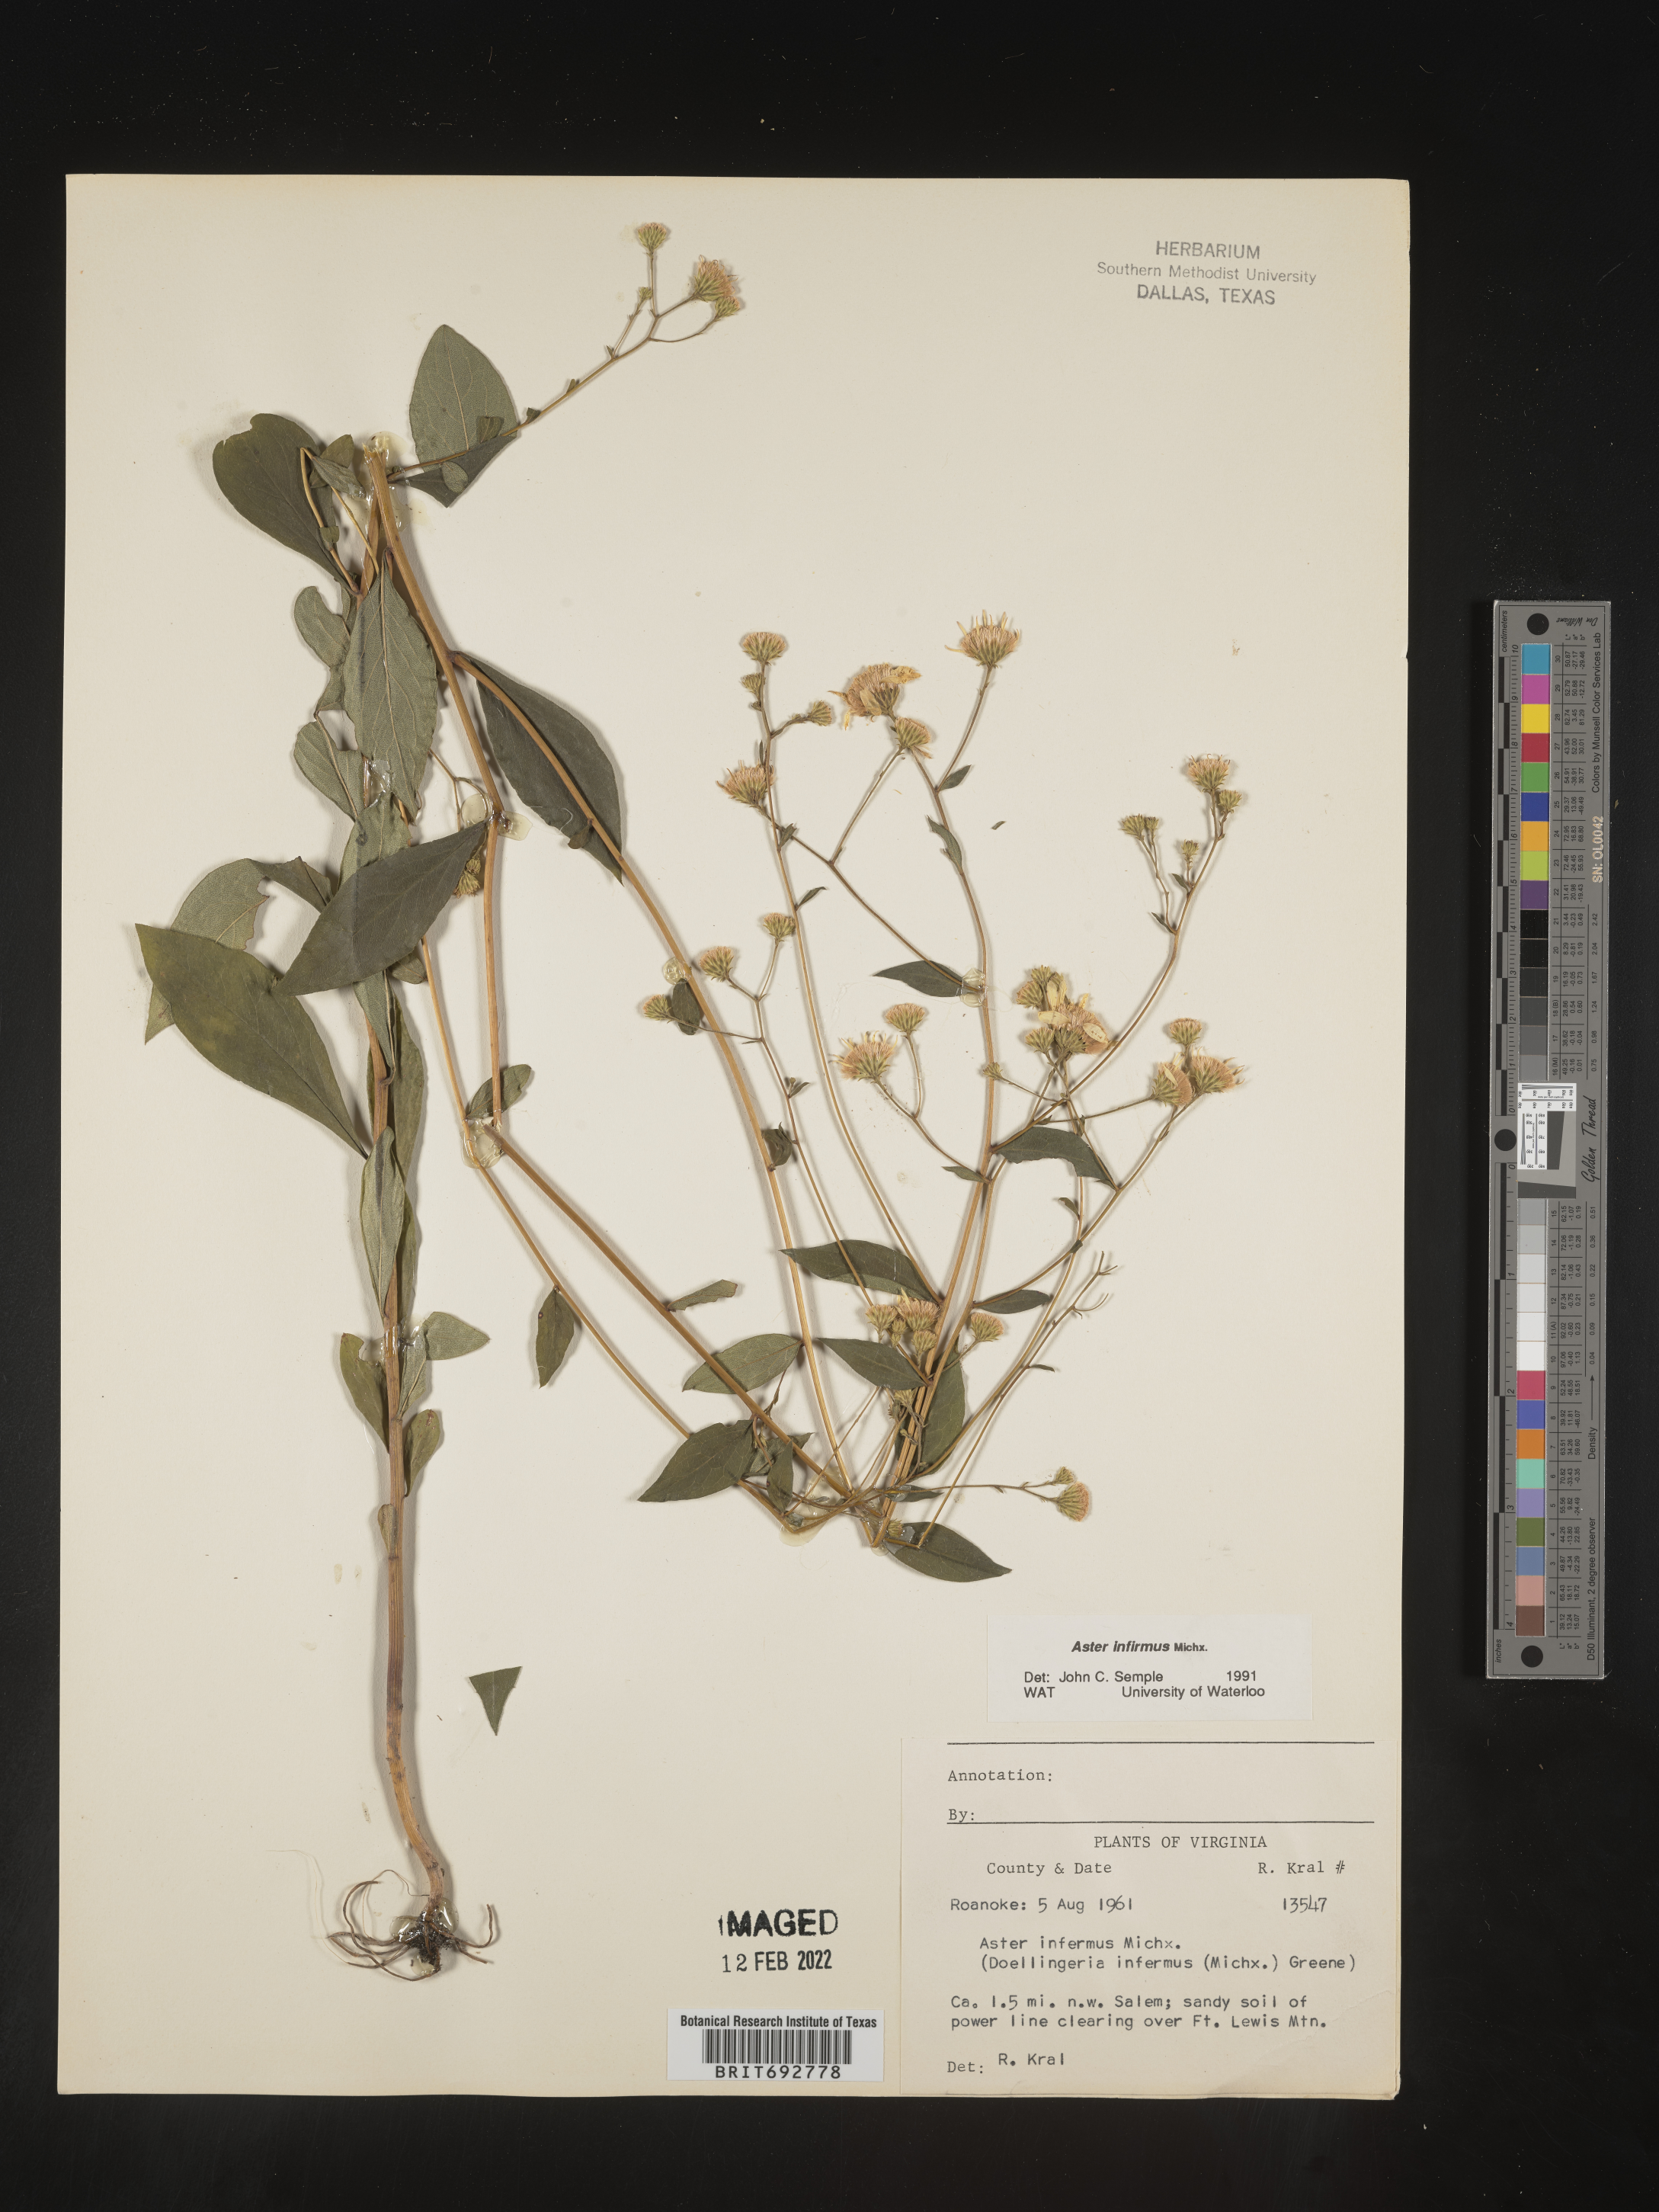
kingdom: Plantae
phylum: Tracheophyta
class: Magnoliopsida
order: Asterales
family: Asteraceae
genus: Doellingeria
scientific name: Doellingeria infirma
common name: Appalachian flat-top aster
